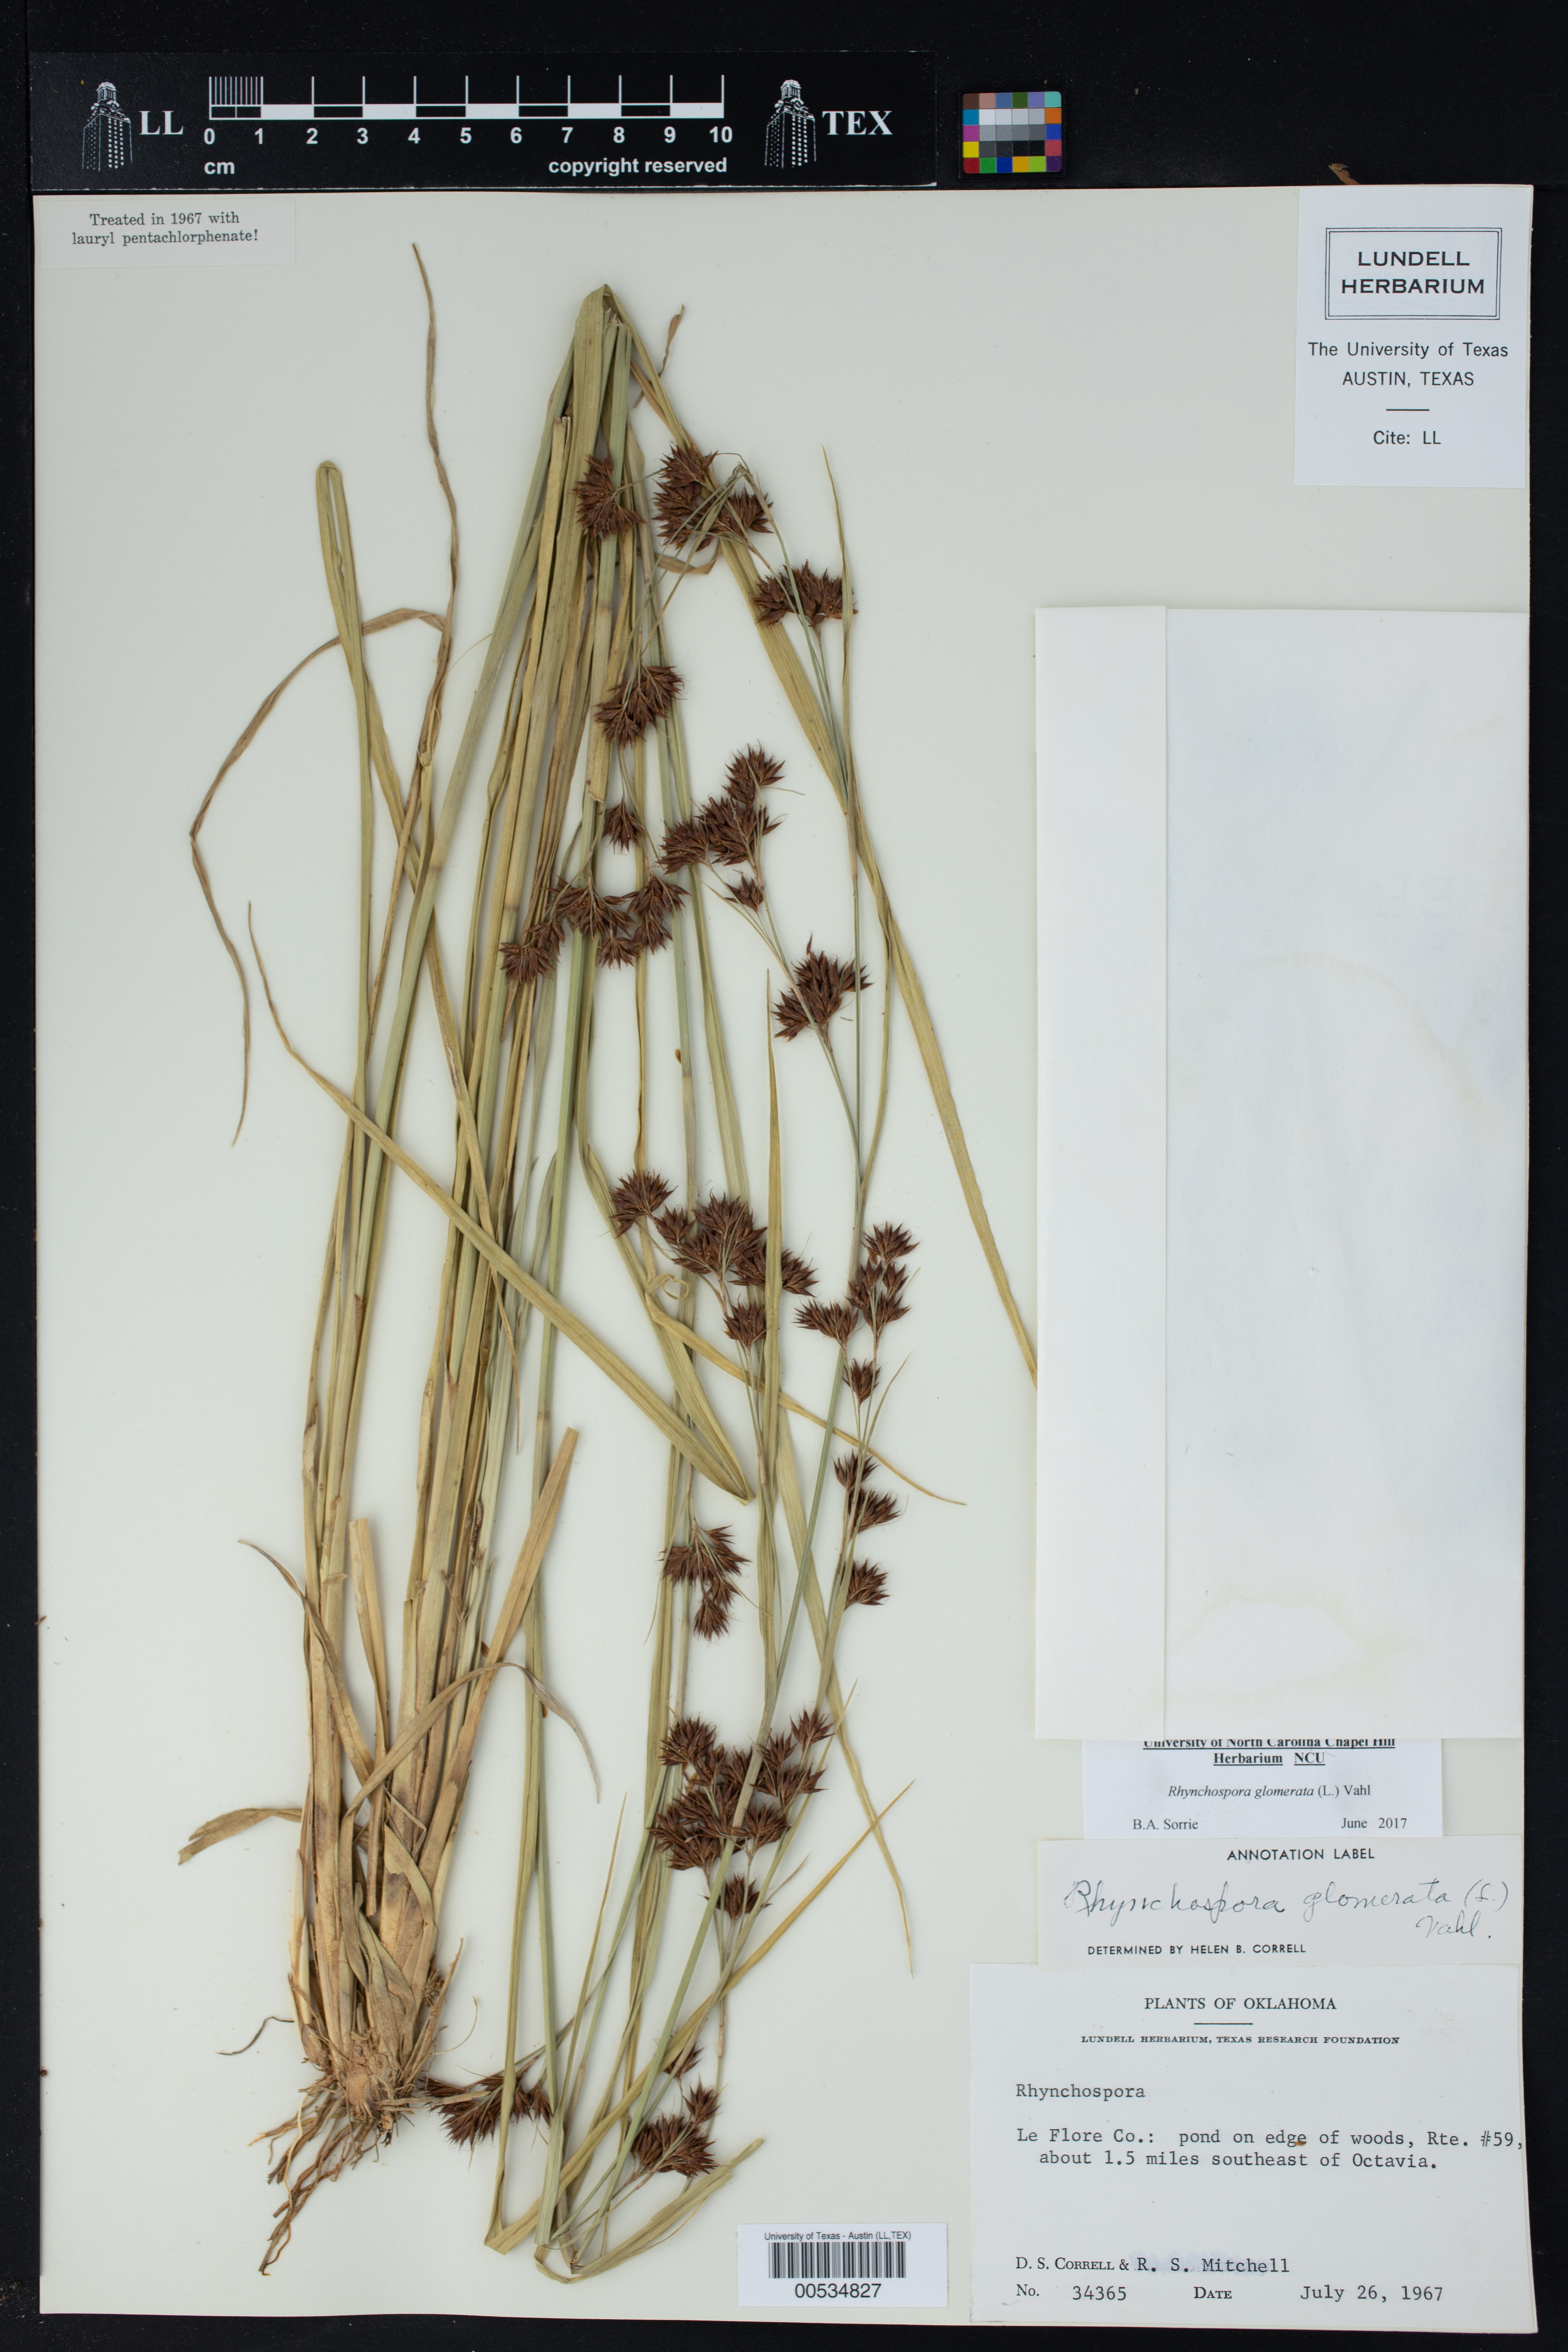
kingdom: Plantae
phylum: Tracheophyta
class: Liliopsida
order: Poales
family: Cyperaceae
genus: Rhynchospora
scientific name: Rhynchospora glomerata
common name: Cluster beak sedge
